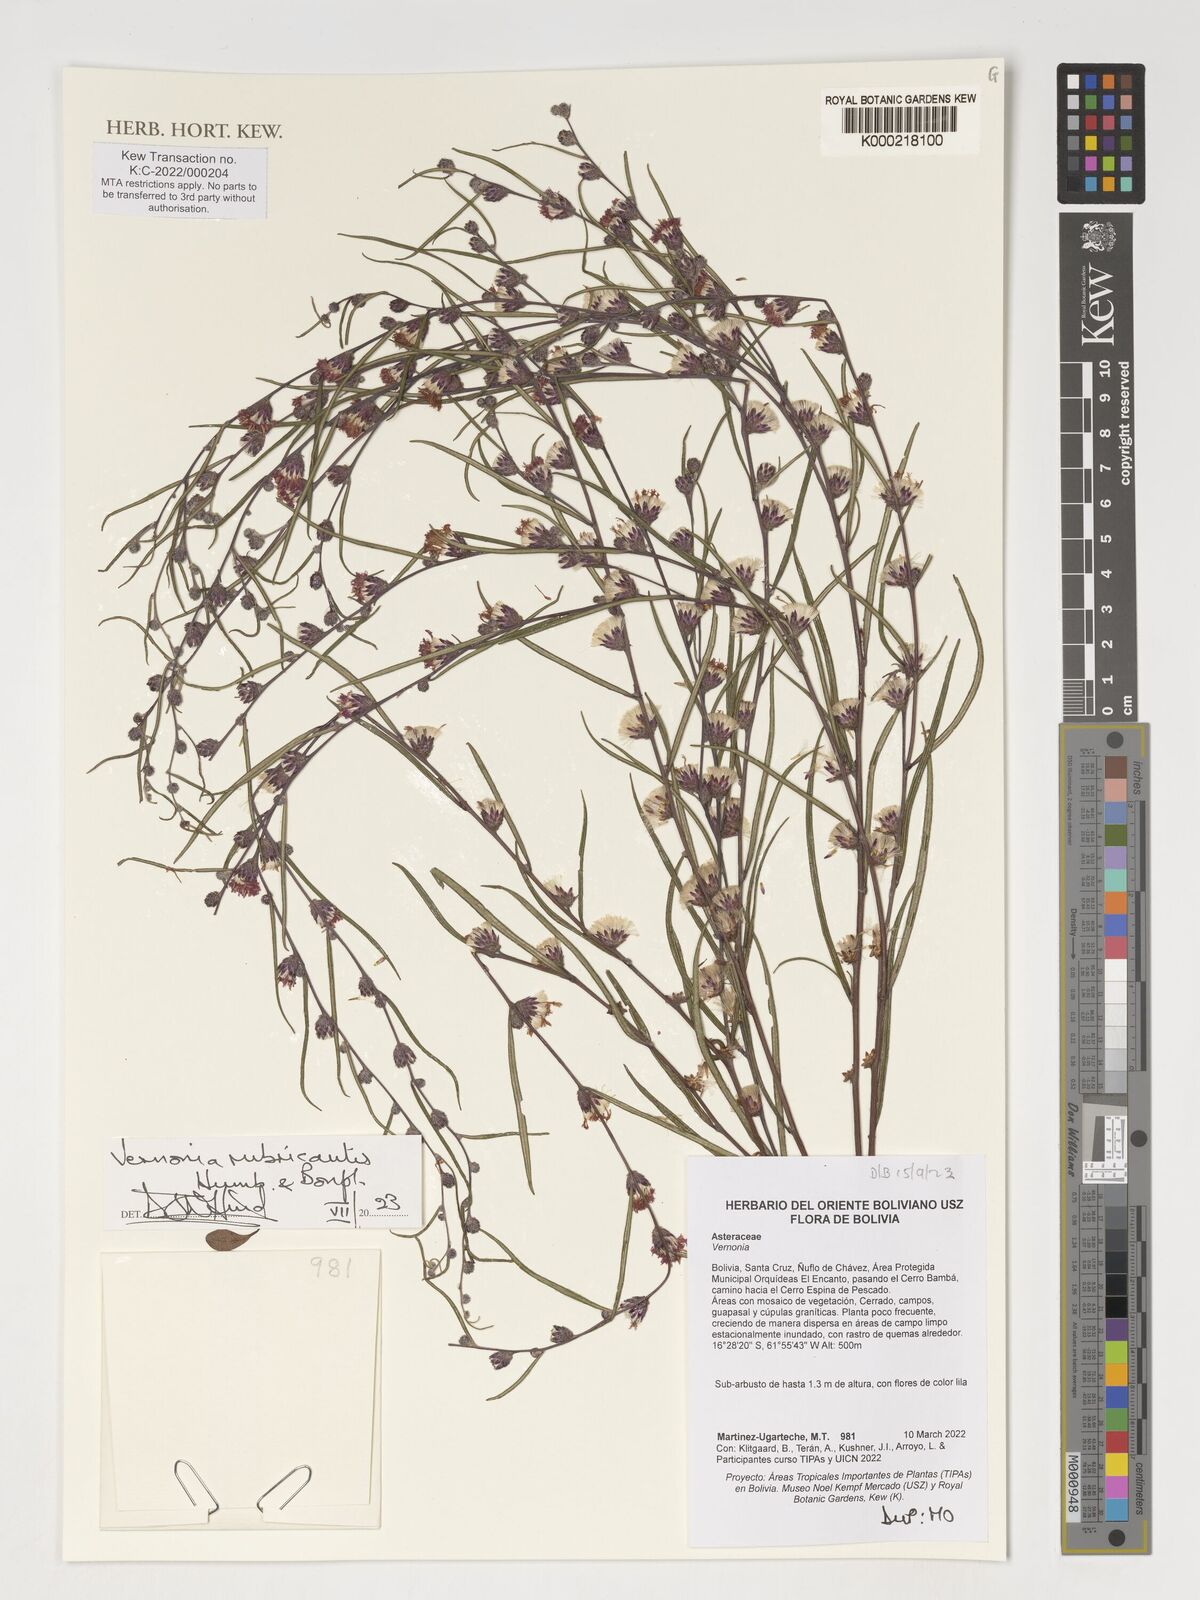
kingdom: Plantae
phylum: Tracheophyta
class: Magnoliopsida
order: Asterales
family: Asteraceae
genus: Acilepis
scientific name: Acilepis squarrosa
